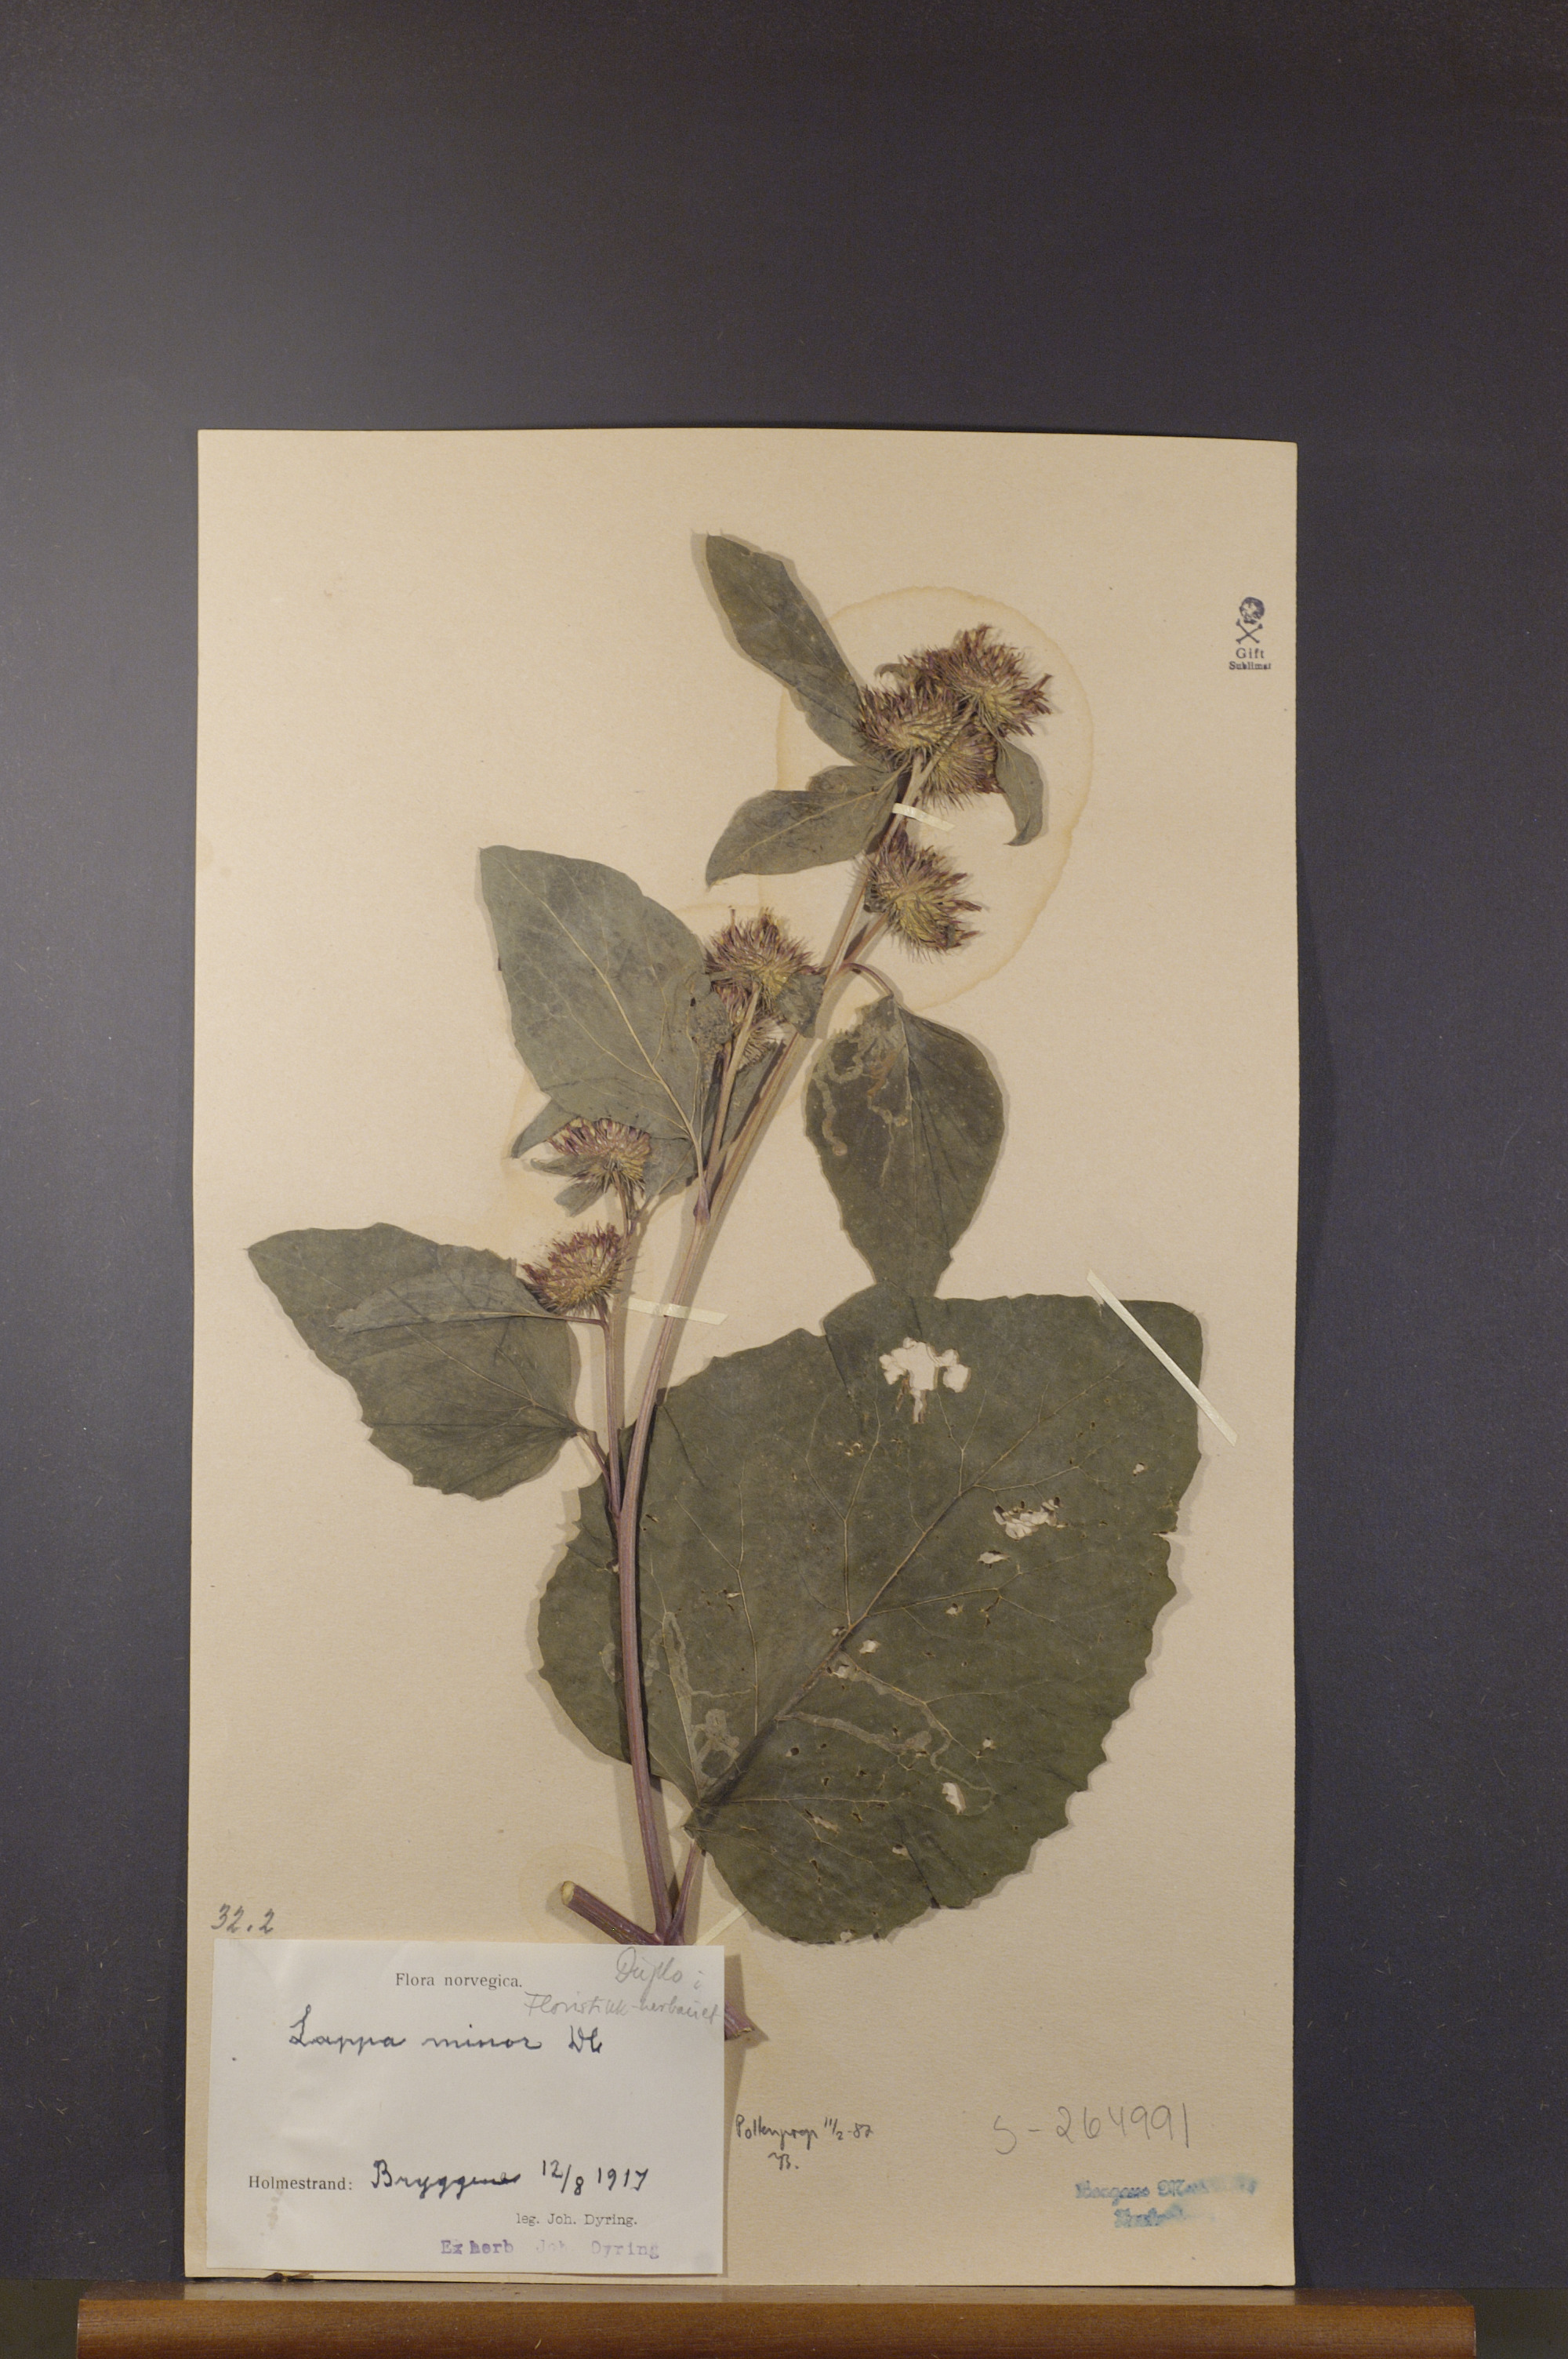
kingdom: Plantae
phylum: Tracheophyta
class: Magnoliopsida
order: Asterales
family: Asteraceae
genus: Arctium
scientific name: Arctium minus
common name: Lesser burdock
